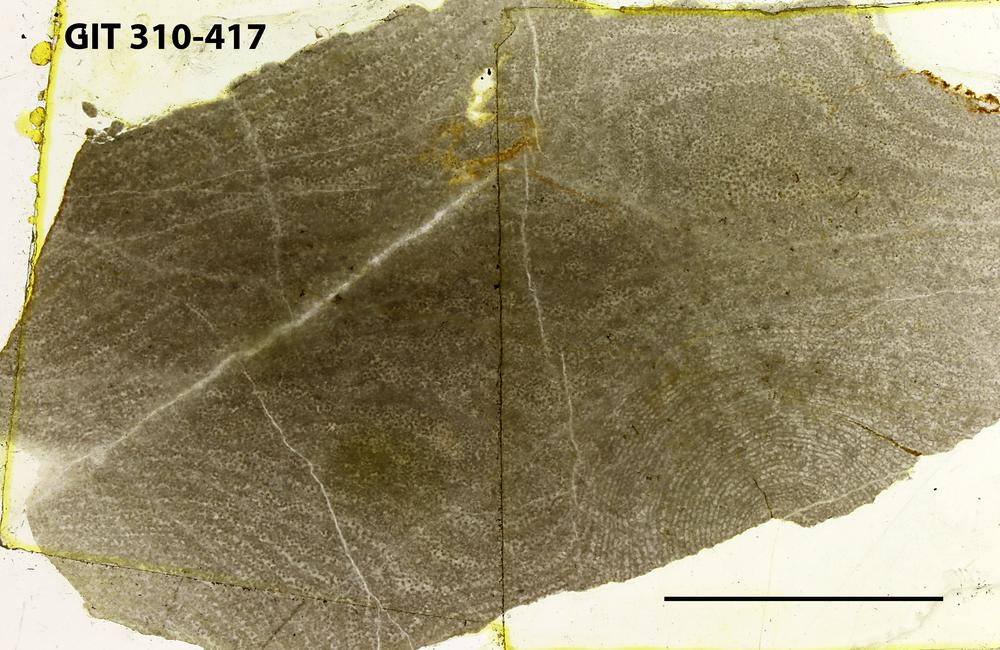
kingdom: Animalia
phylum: Porifera
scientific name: Porifera
